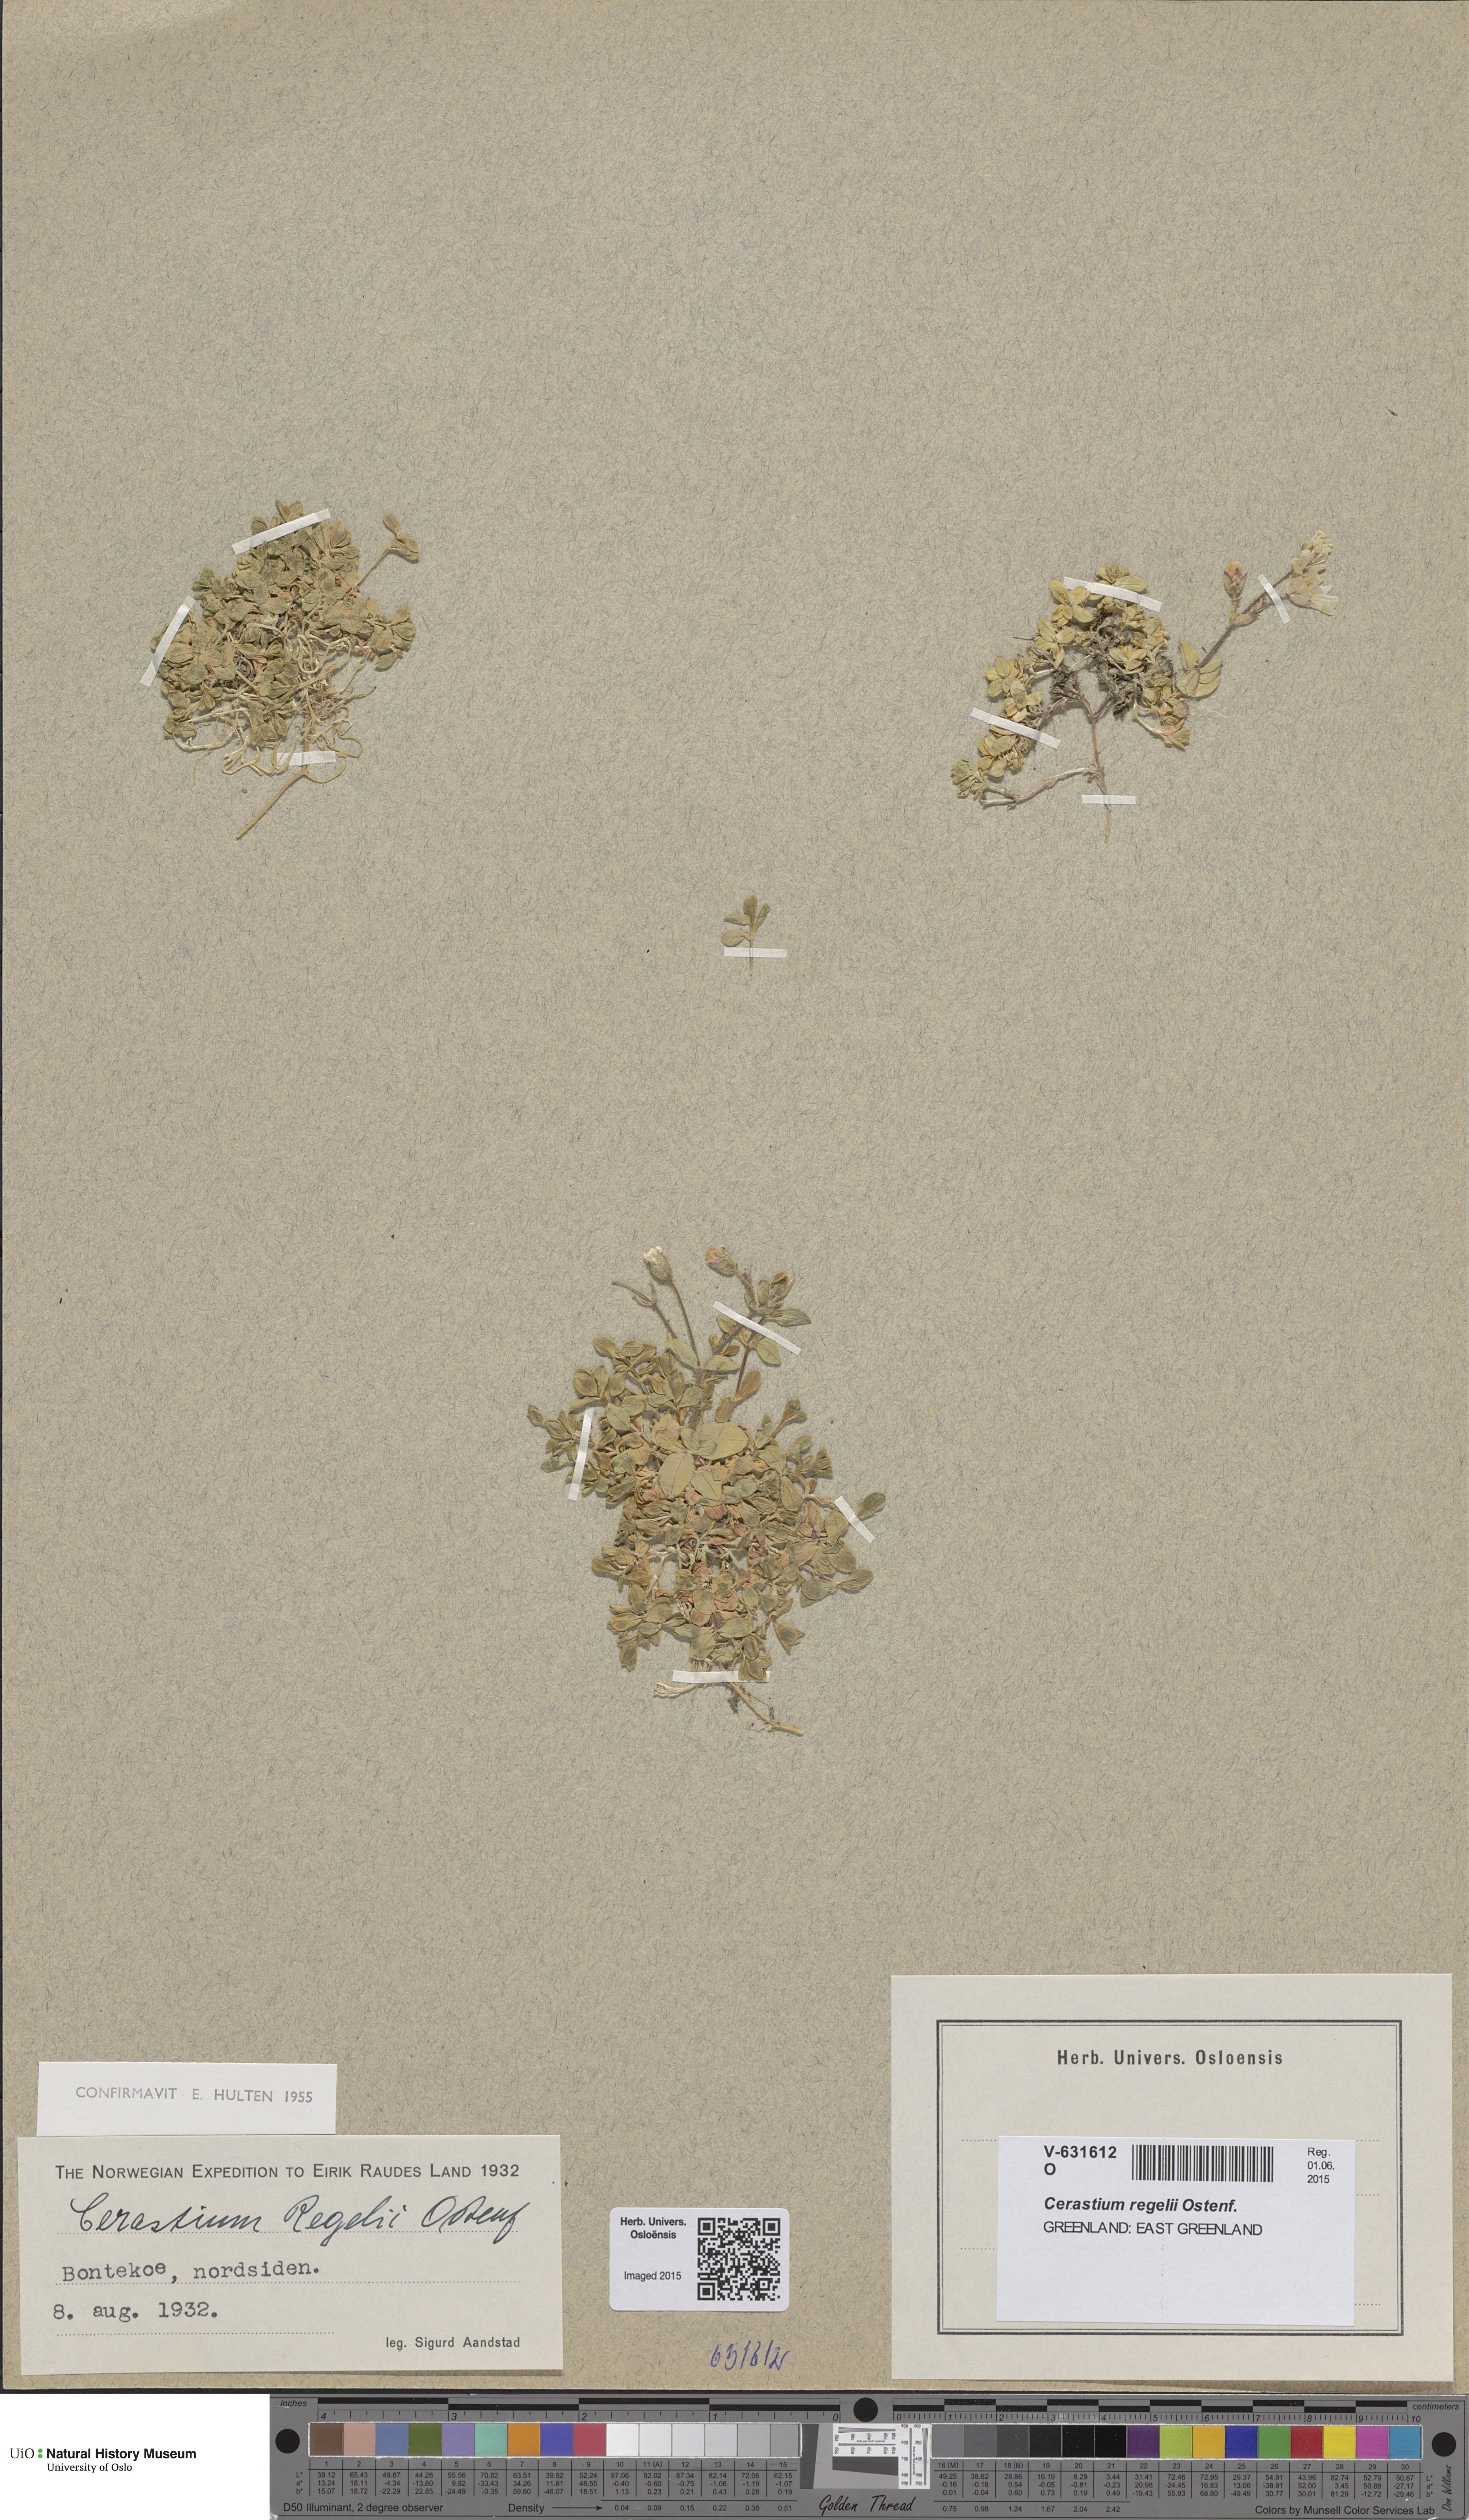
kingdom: Plantae
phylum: Tracheophyta
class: Magnoliopsida
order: Caryophyllales
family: Caryophyllaceae
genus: Cerastium
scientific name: Cerastium regelii
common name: Regel's chickweed
